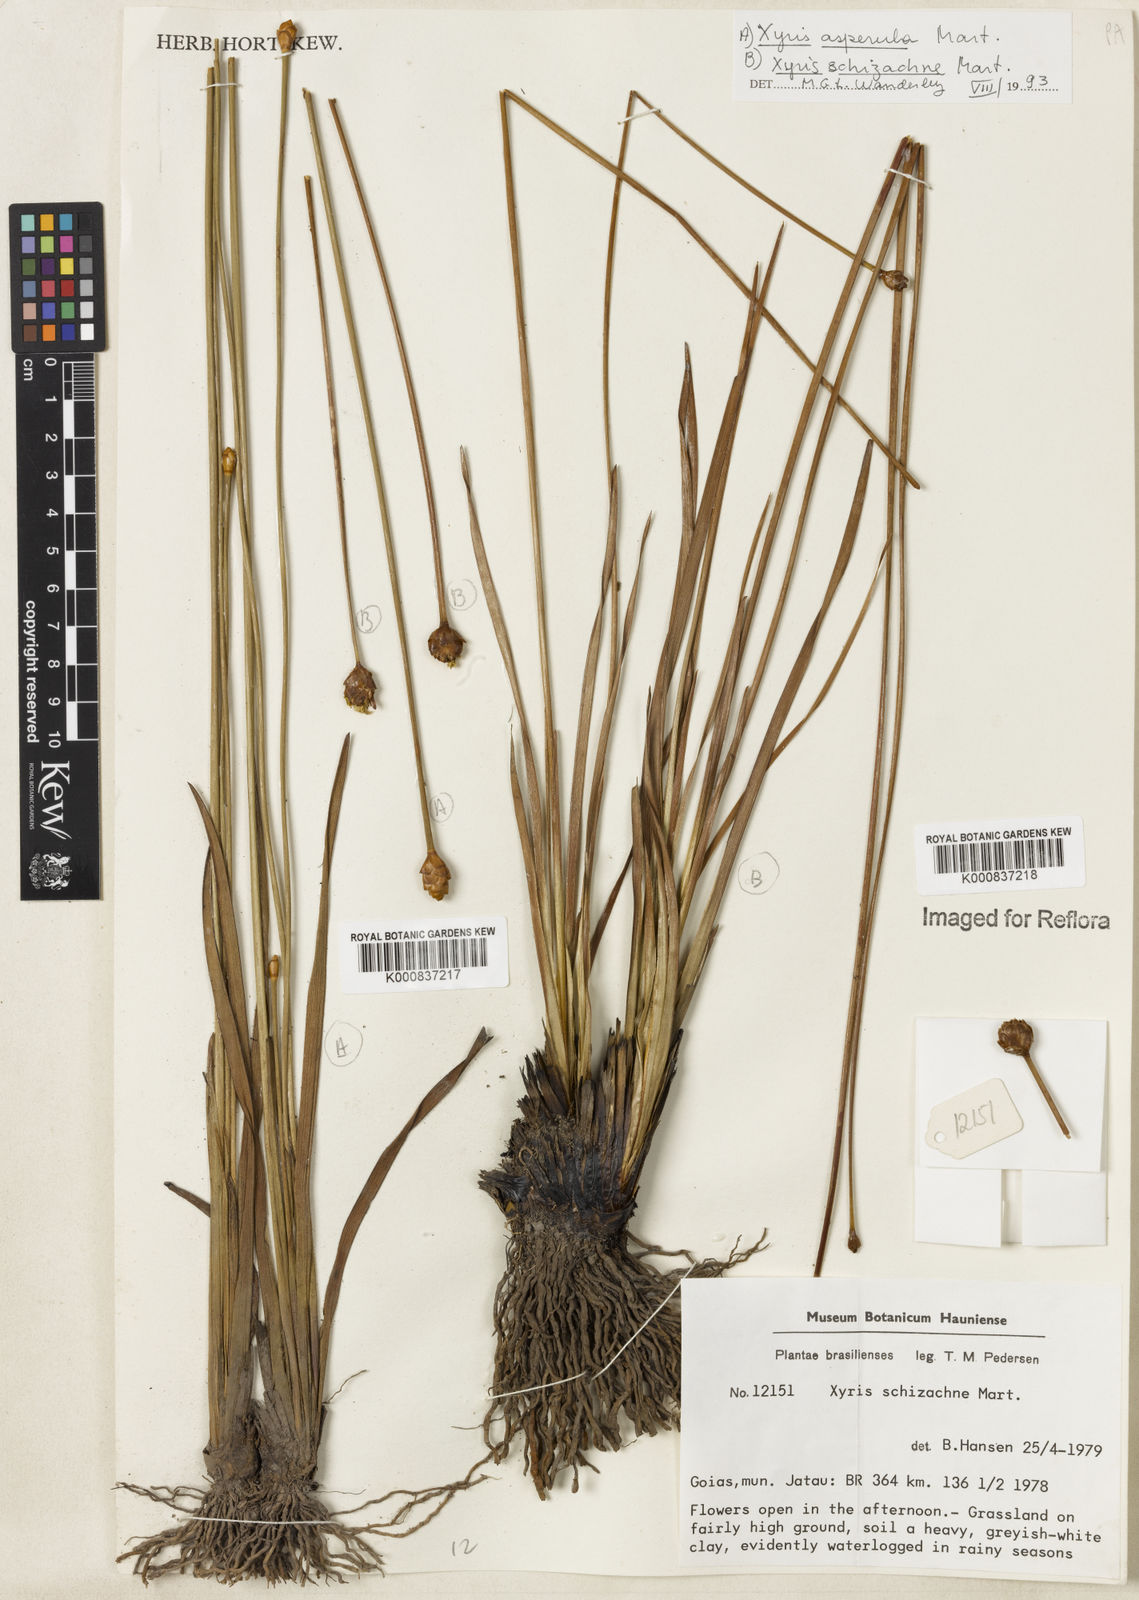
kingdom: Plantae
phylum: Tracheophyta
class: Liliopsida
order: Poales
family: Xyridaceae
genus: Xyris
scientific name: Xyris schizachne
